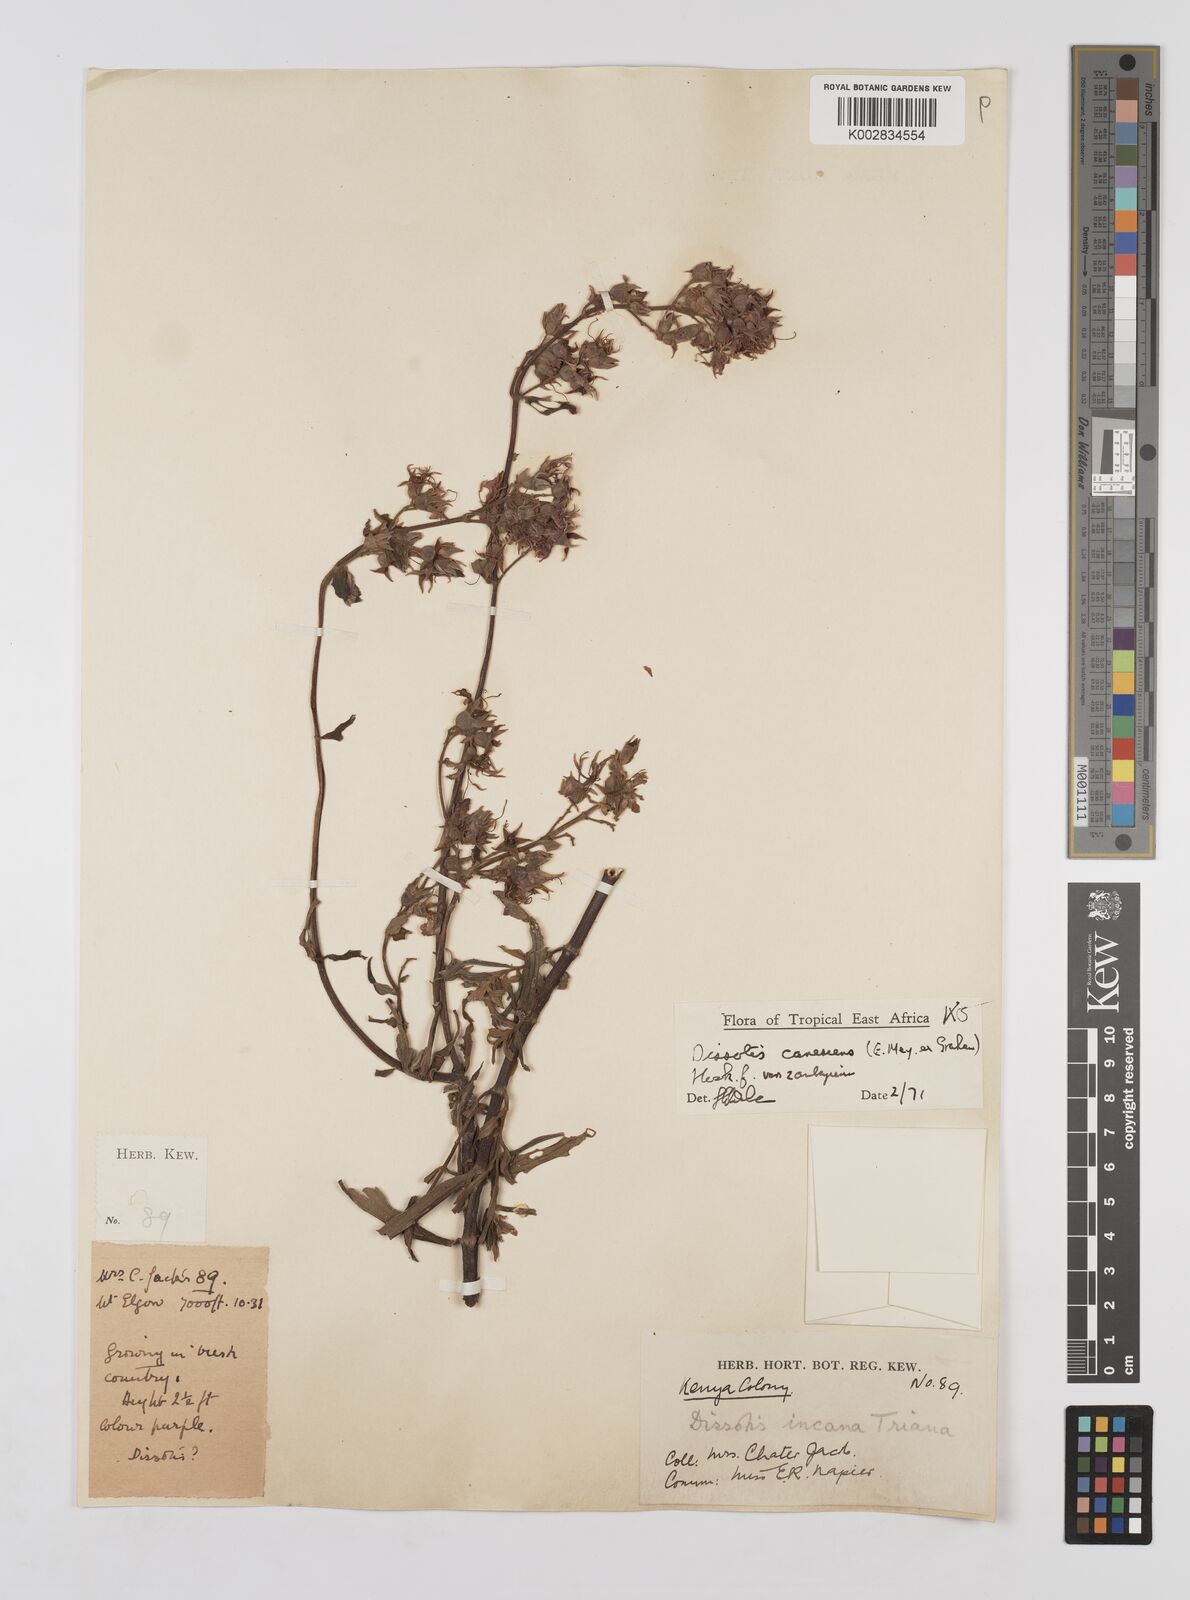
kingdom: Plantae
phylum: Tracheophyta
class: Magnoliopsida
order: Myrtales
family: Melastomataceae
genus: Argyrella
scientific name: Argyrella canescens
